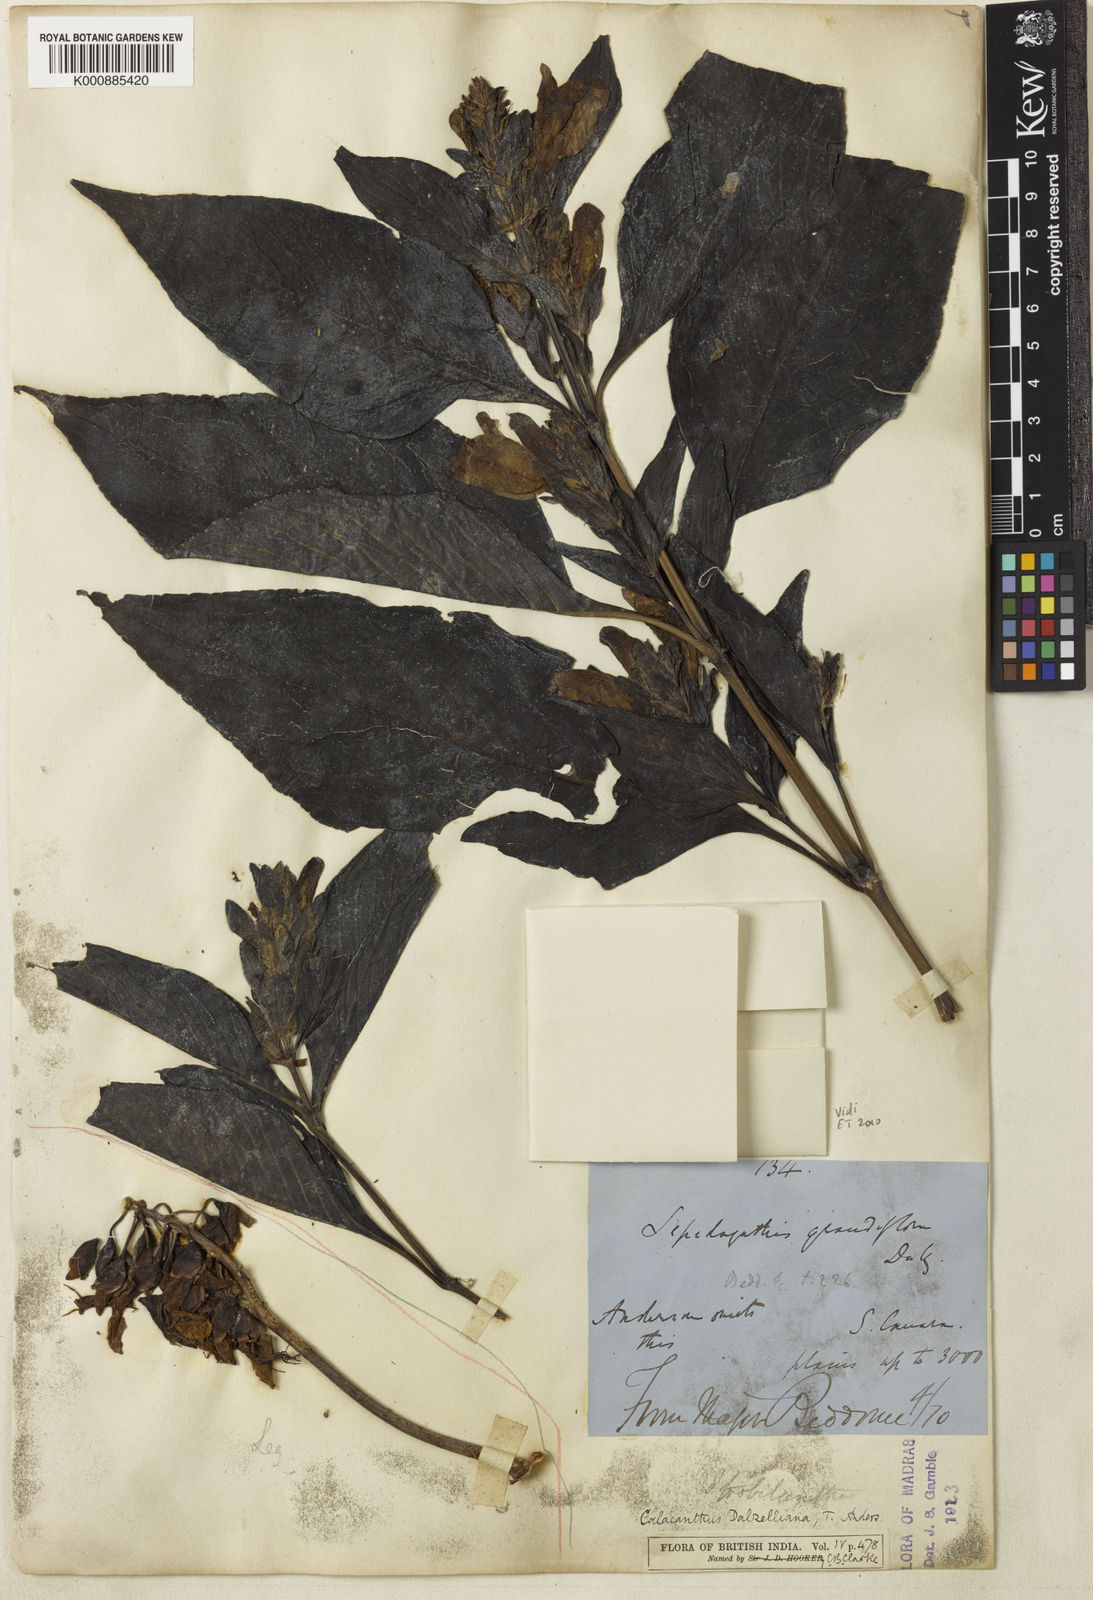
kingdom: Plantae
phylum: Tracheophyta
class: Magnoliopsida
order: Lamiales
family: Acanthaceae
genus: Calacanthus
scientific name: Calacanthus grandiflorus
